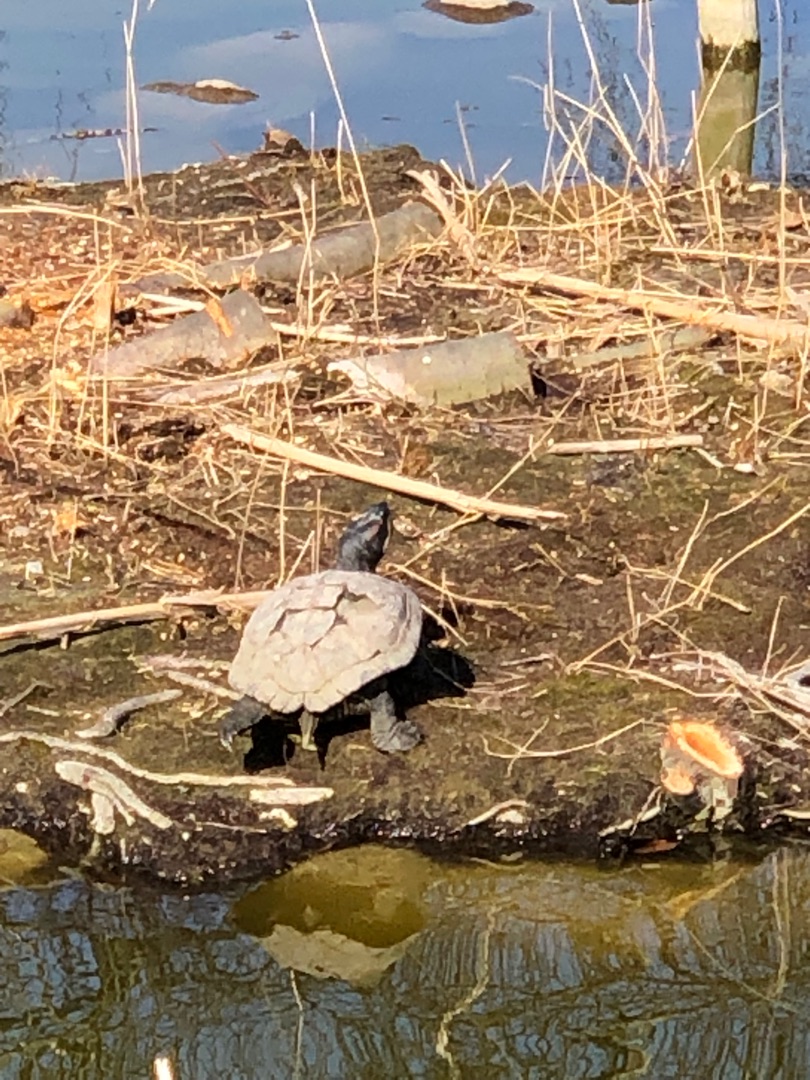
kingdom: Animalia
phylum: Chordata
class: Testudines
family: Emydidae
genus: Trachemys
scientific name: Trachemys scripta
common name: Nordamerikansk terrapin
